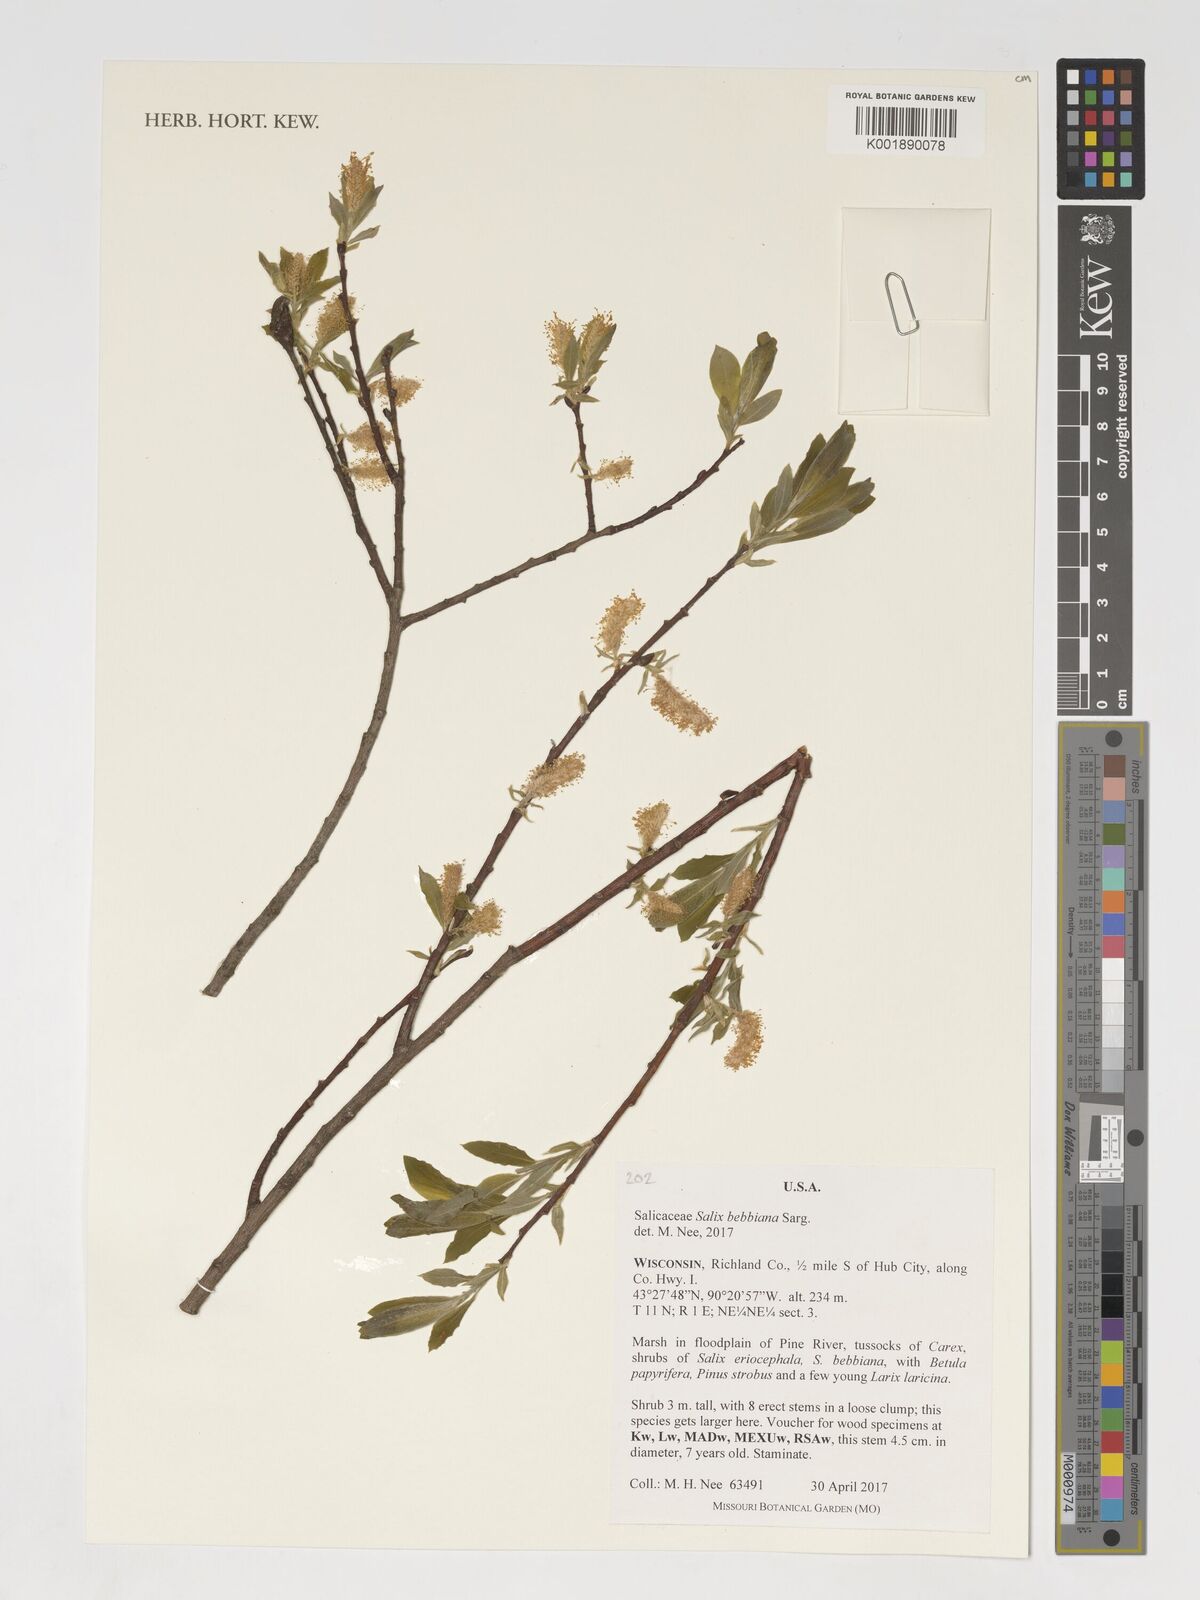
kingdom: Plantae
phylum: Tracheophyta
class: Magnoliopsida
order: Malpighiales
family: Salicaceae
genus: Salix
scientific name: Salix bebbiana
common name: Bebb's willow
